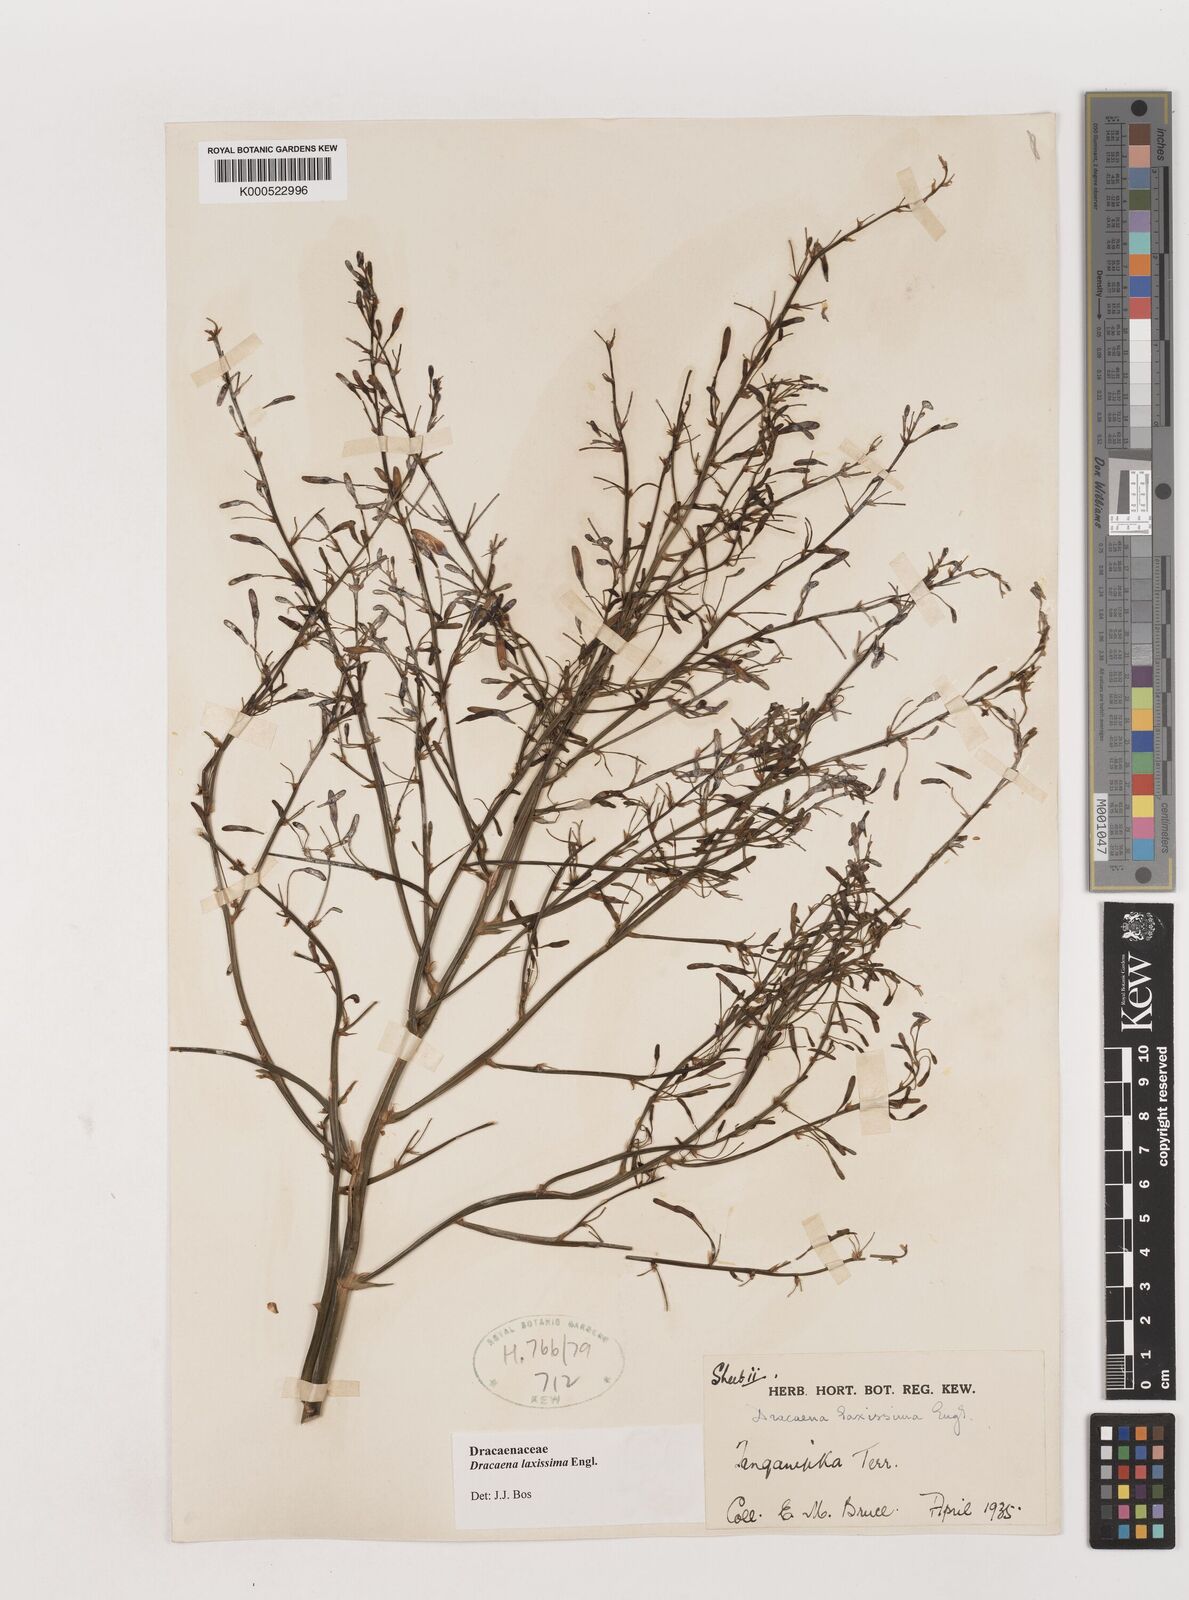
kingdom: Plantae
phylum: Tracheophyta
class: Liliopsida
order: Asparagales
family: Asparagaceae
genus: Dracaena
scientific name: Dracaena laxissima
